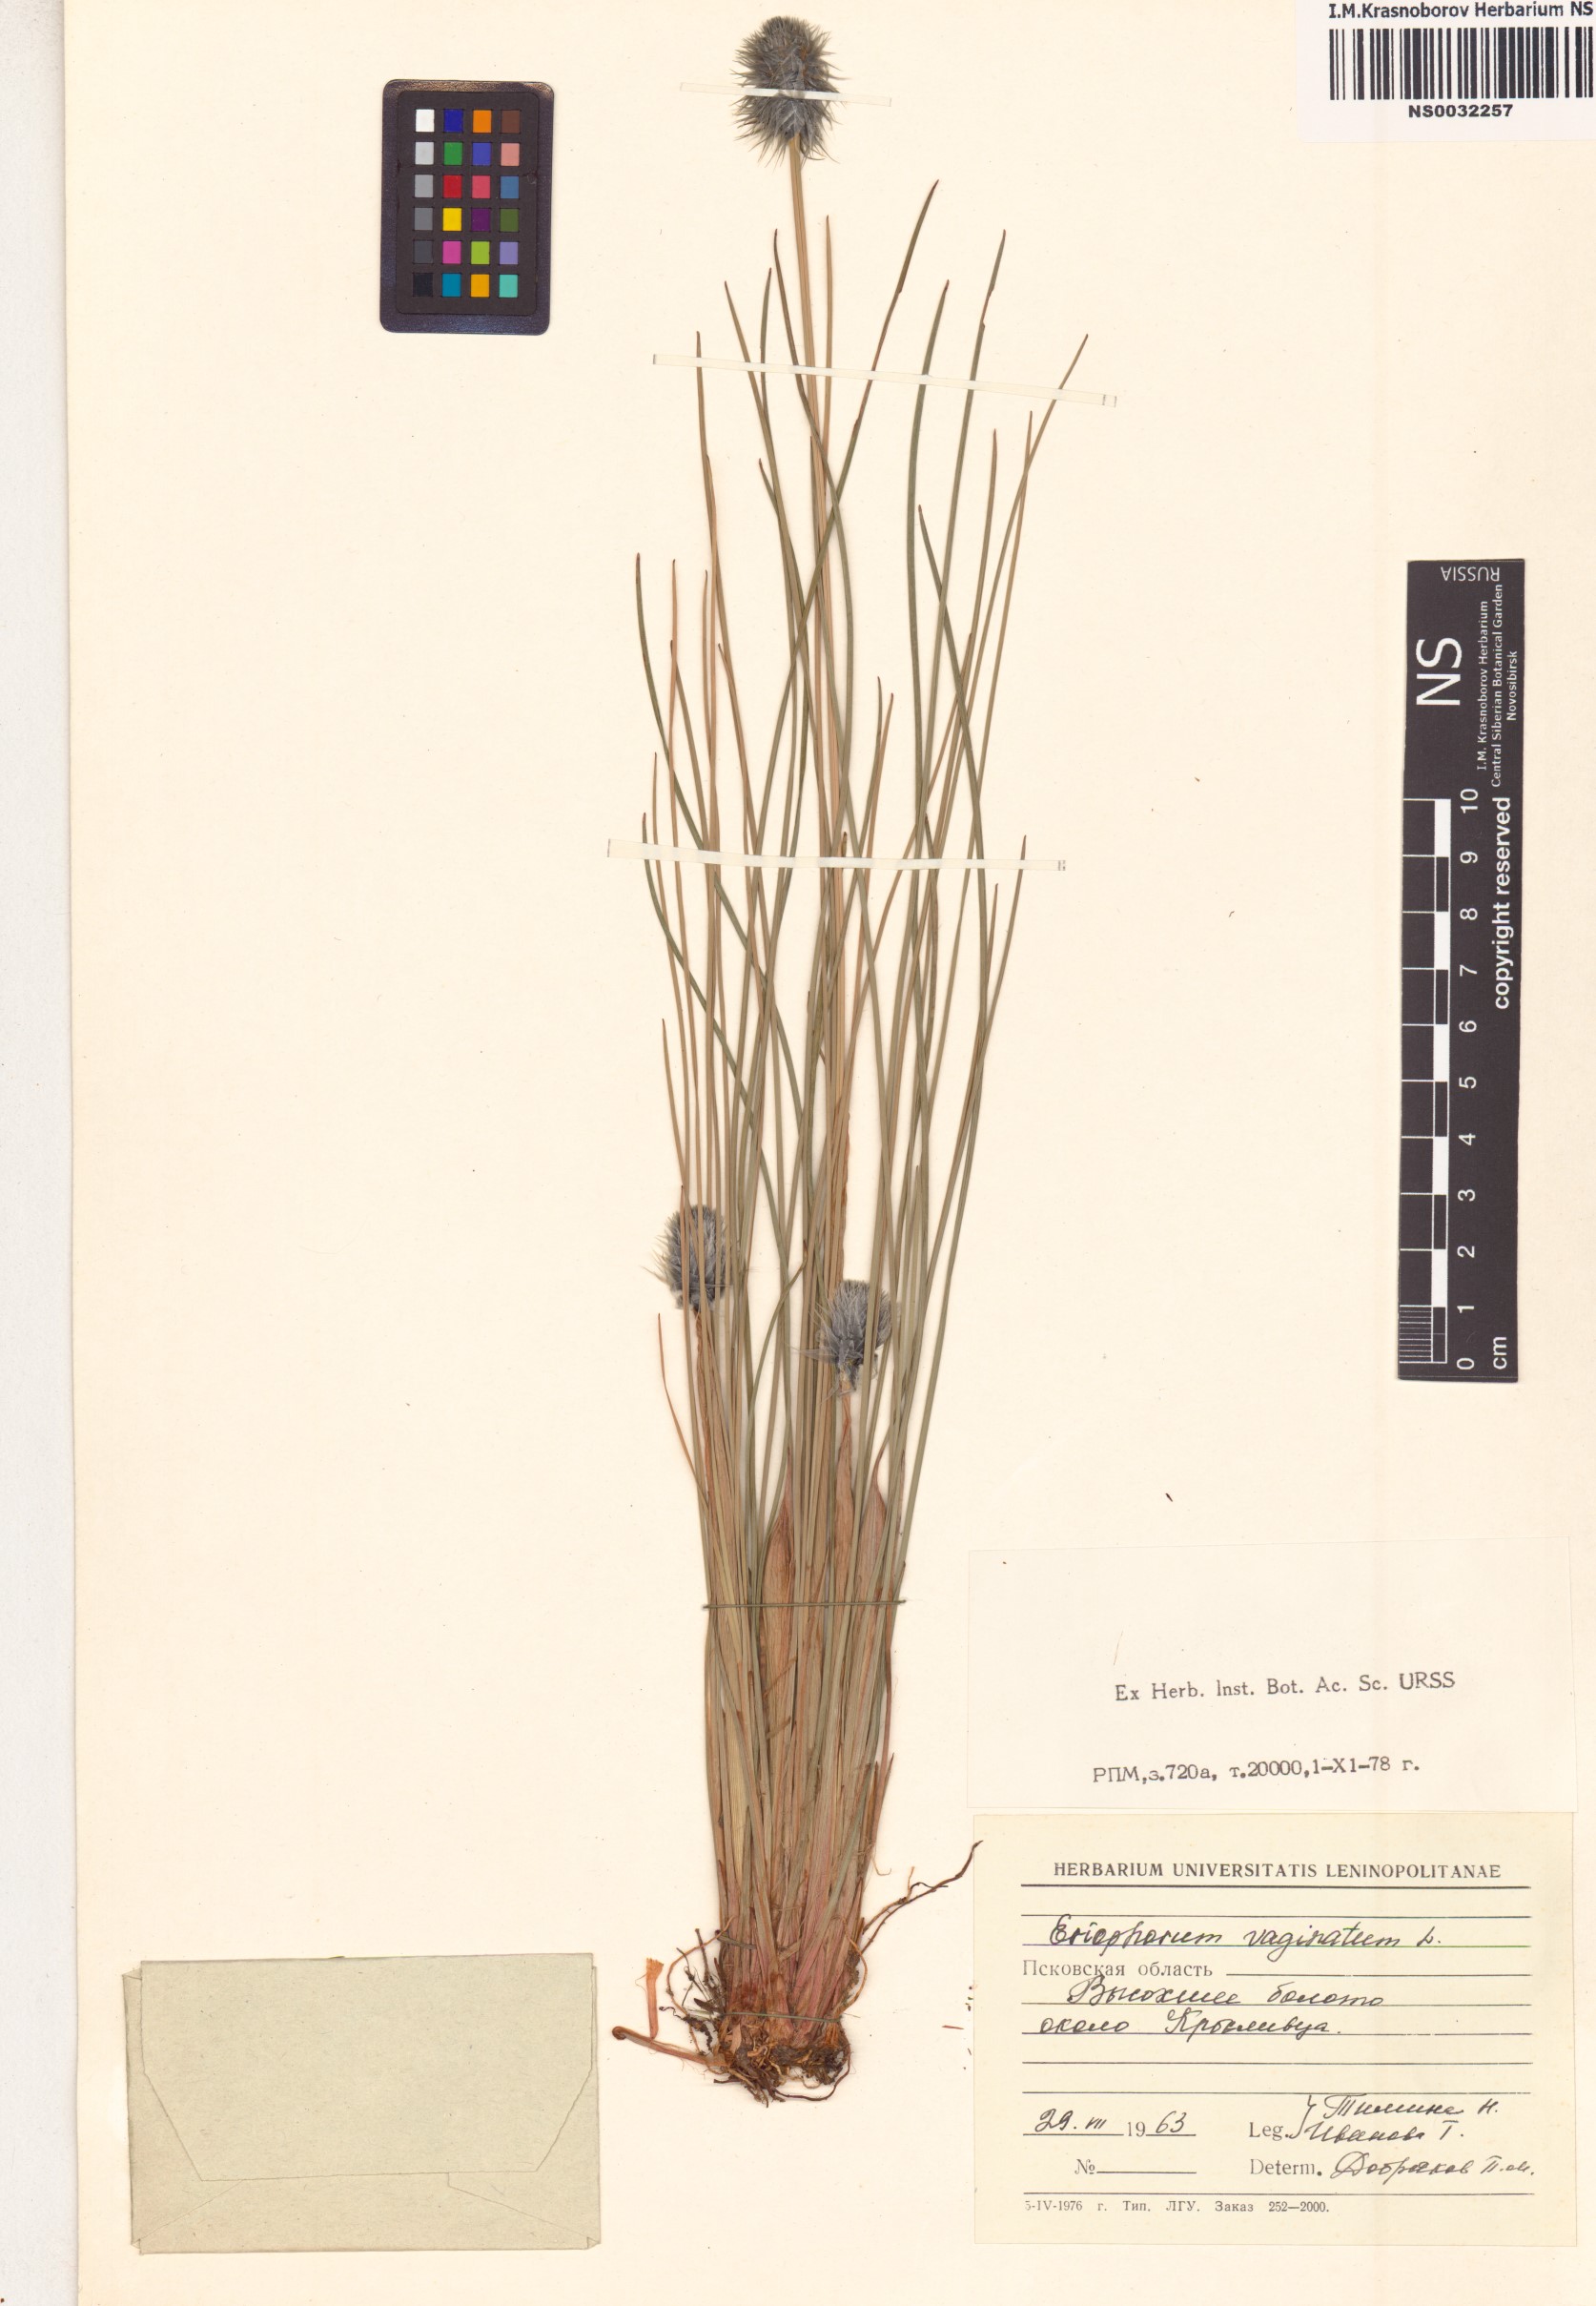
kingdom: Plantae
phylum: Tracheophyta
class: Liliopsida
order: Poales
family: Cyperaceae
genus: Eriophorum
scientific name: Eriophorum vaginatum
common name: Hare's-tail cottongrass
